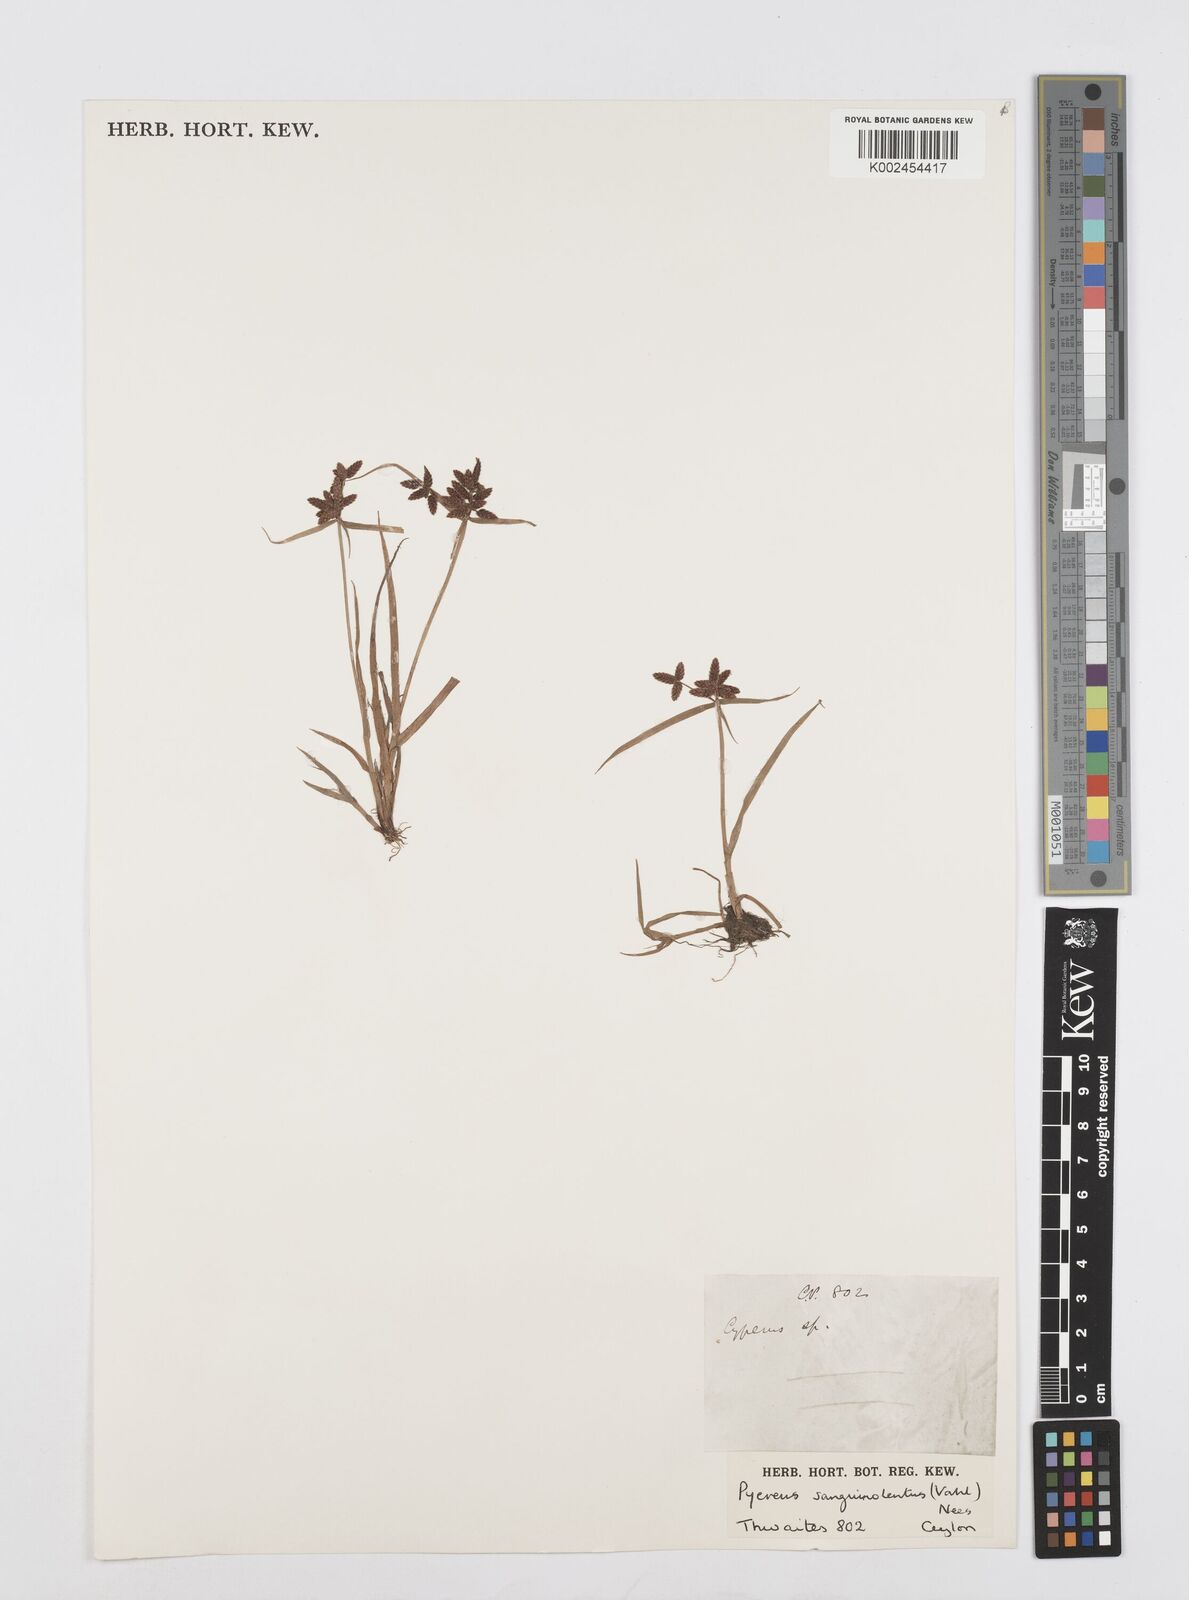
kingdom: Plantae
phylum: Tracheophyta
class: Liliopsida
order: Poales
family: Cyperaceae
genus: Cyperus
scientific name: Cyperus sanguinolentus
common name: Purpleglume flatsedge
